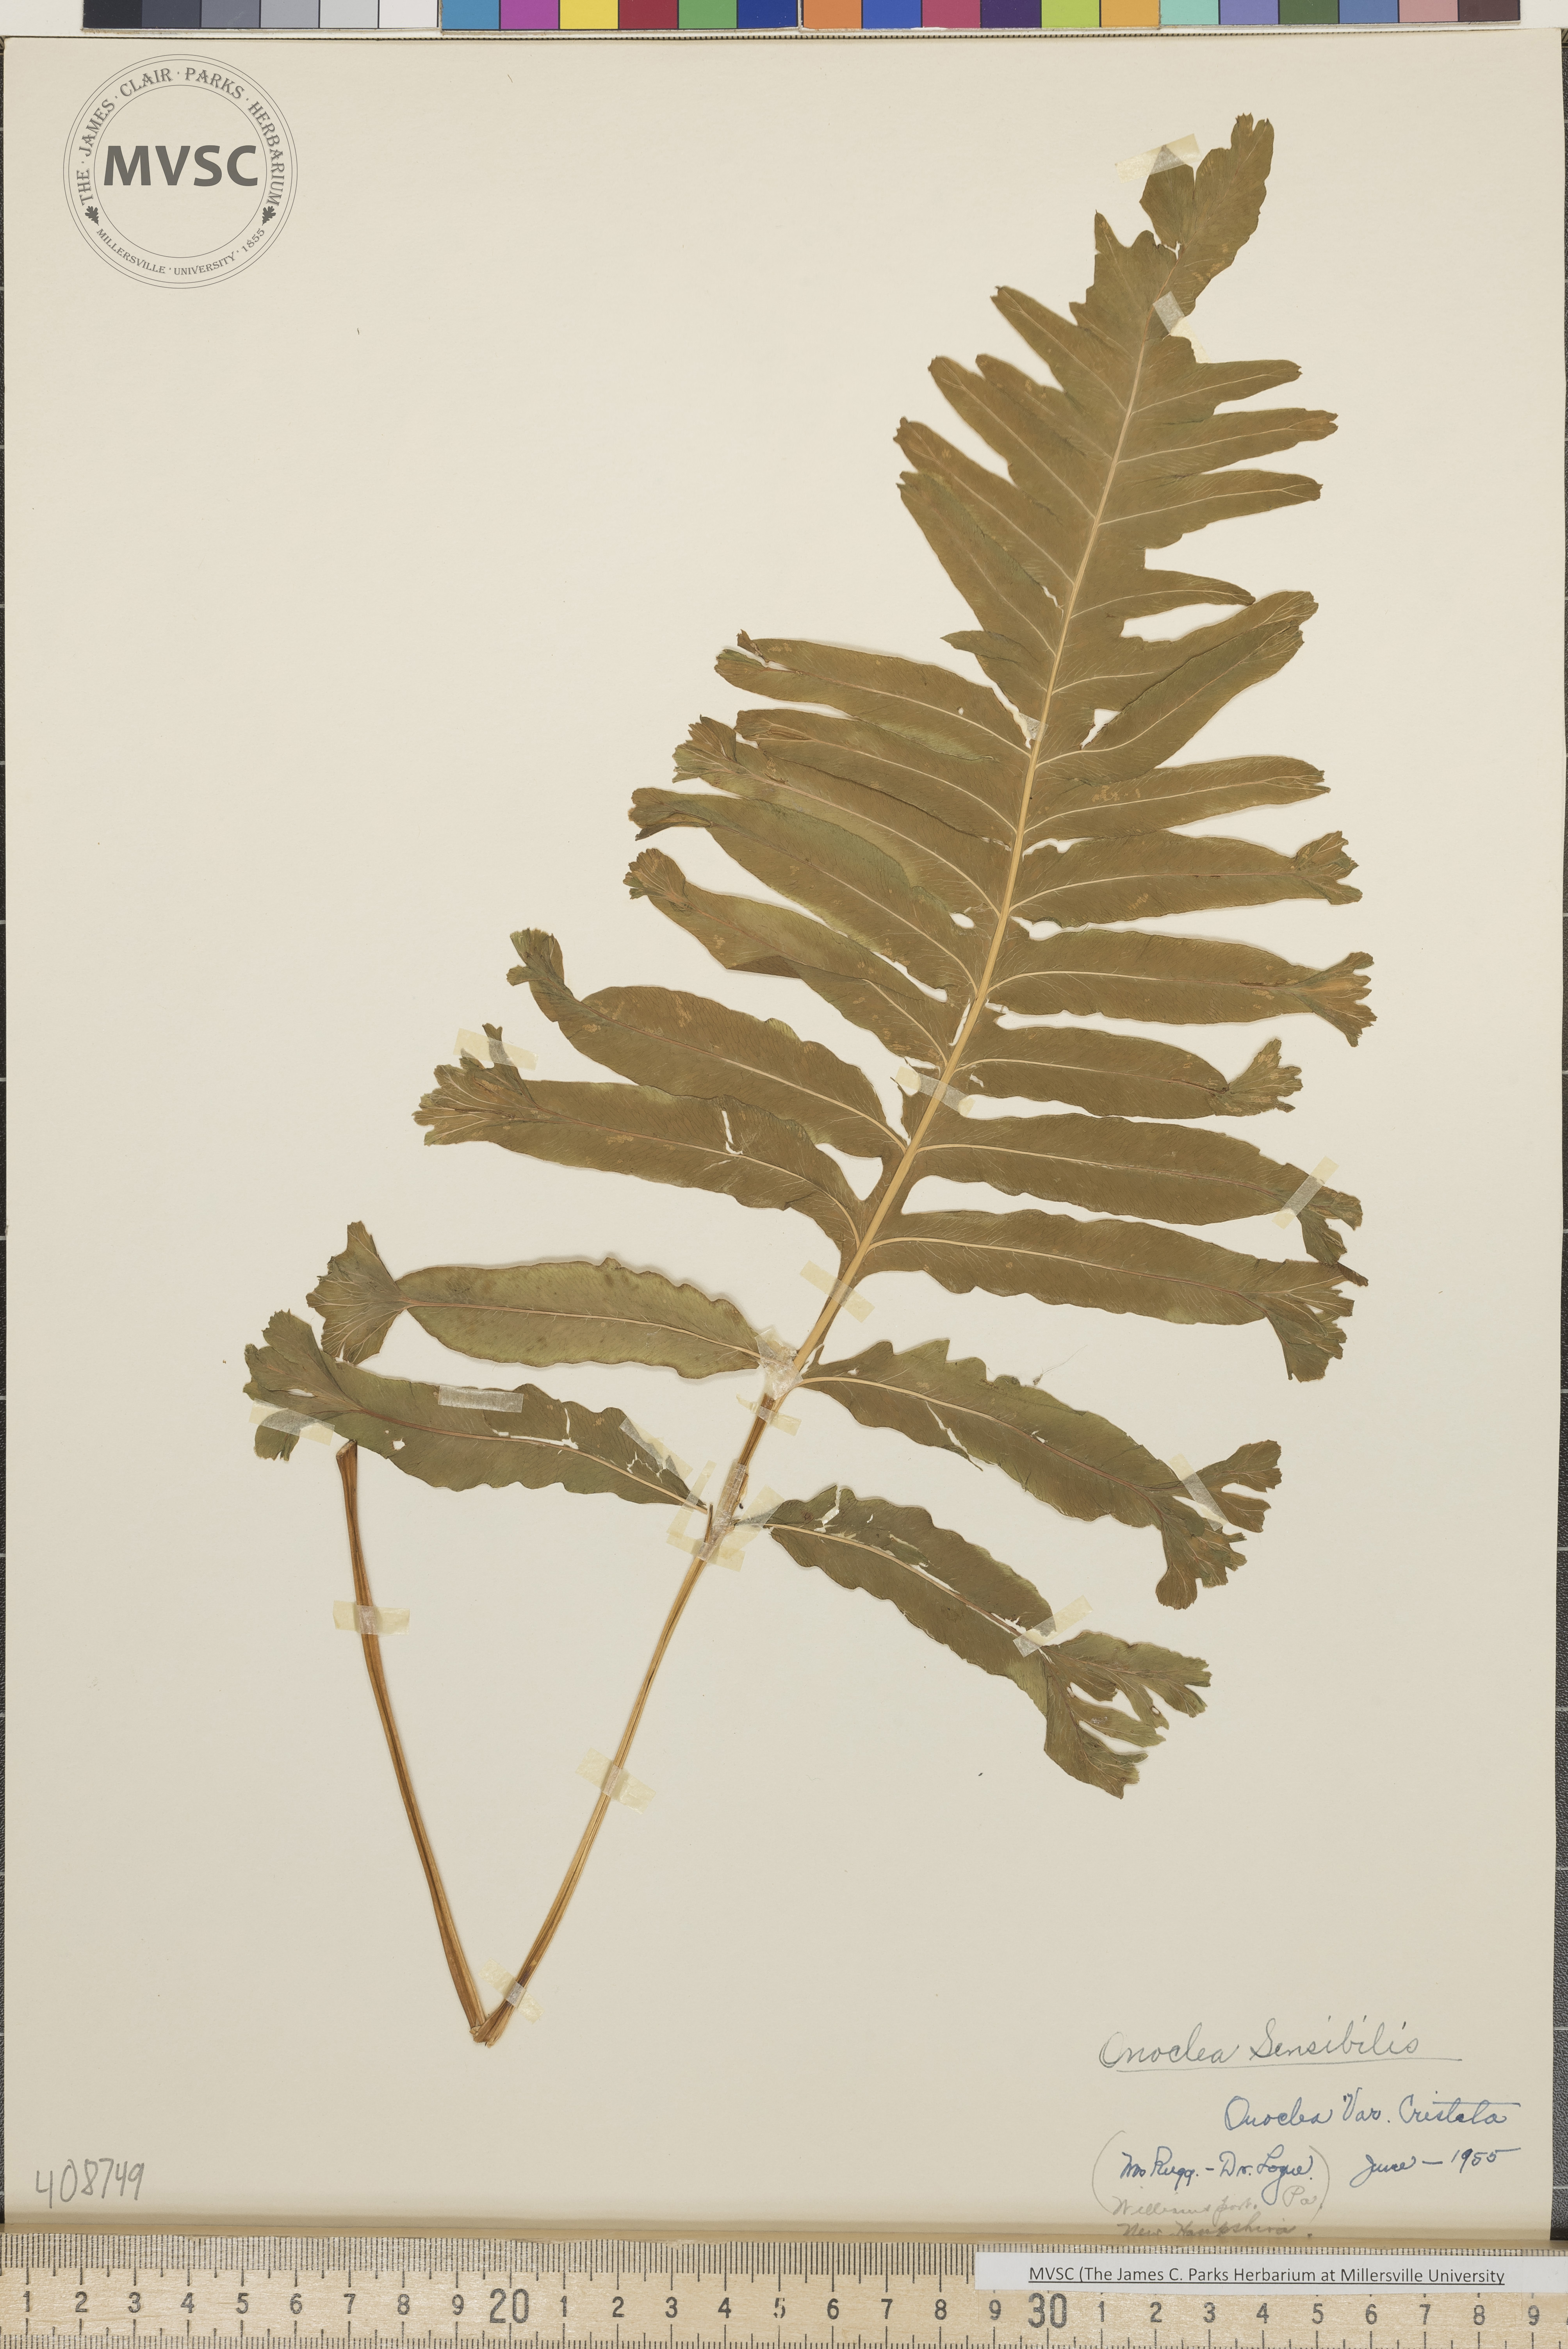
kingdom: Plantae
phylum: Tracheophyta
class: Polypodiopsida
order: Polypodiales
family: Onocleaceae
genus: Onoclea
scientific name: Onoclea sensibilis
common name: Sensitive fern
